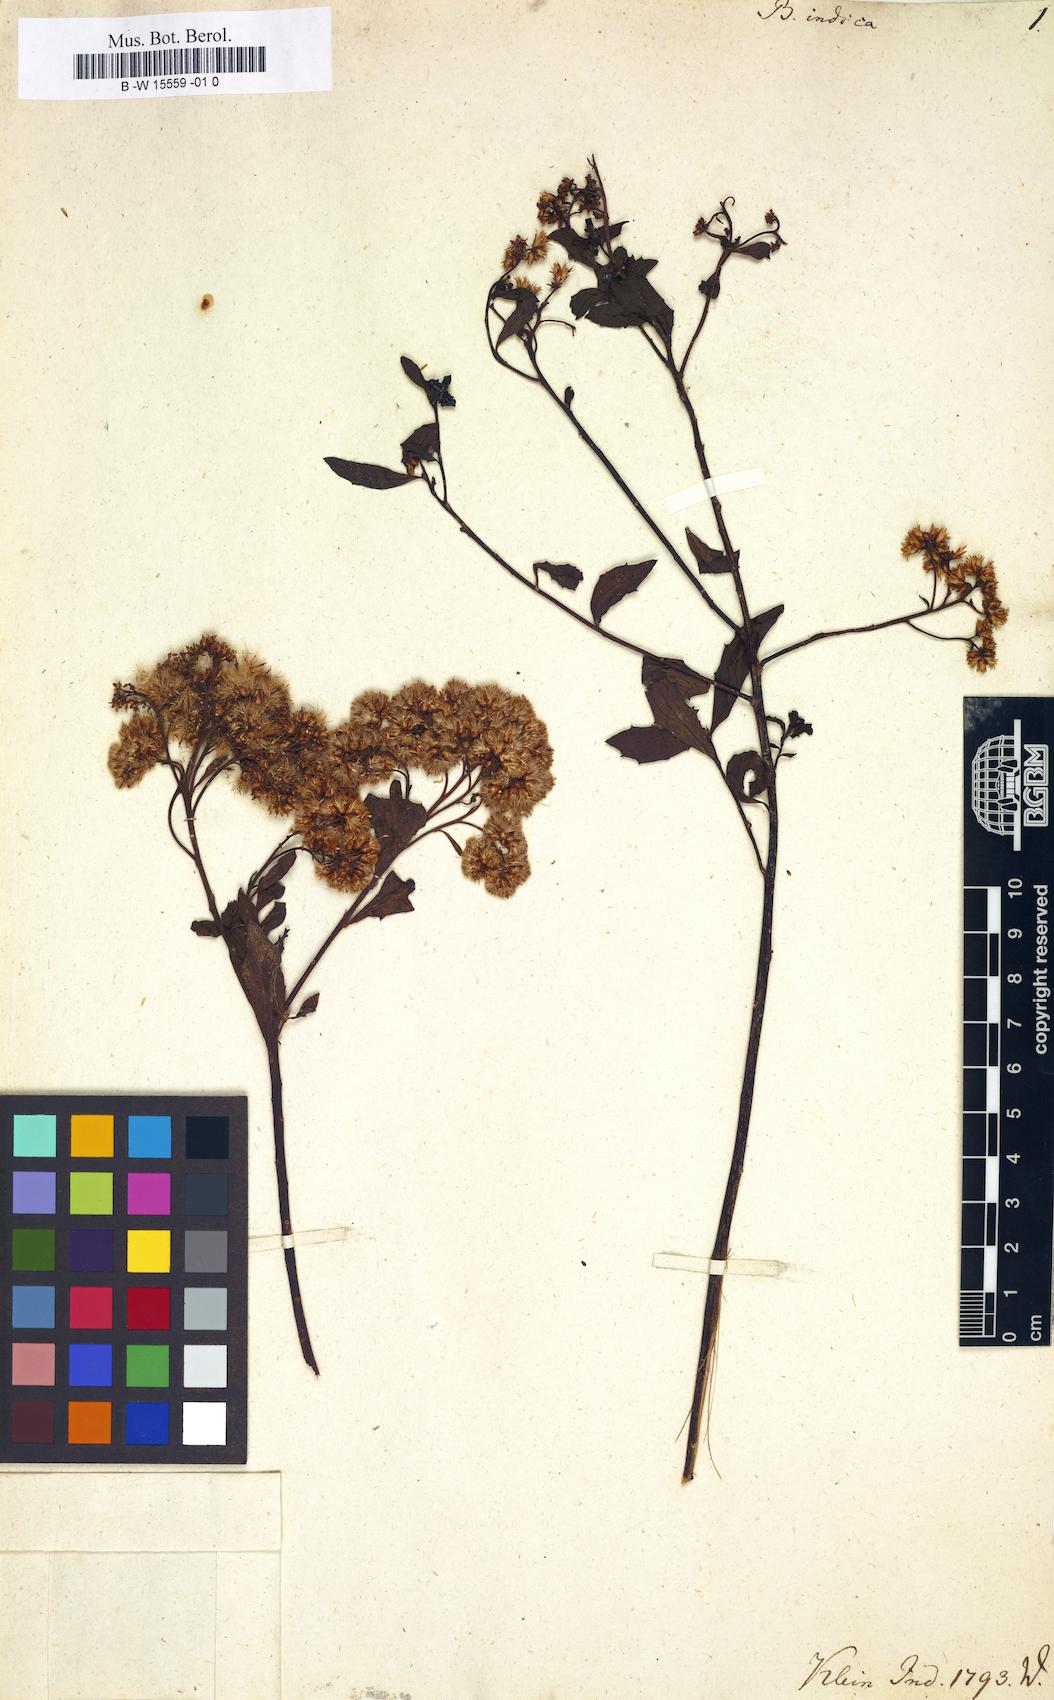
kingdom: Plantae
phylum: Tracheophyta
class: Magnoliopsida
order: Asterales
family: Asteraceae
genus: Pluchea
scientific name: Pluchea indica
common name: Indian fleabane
